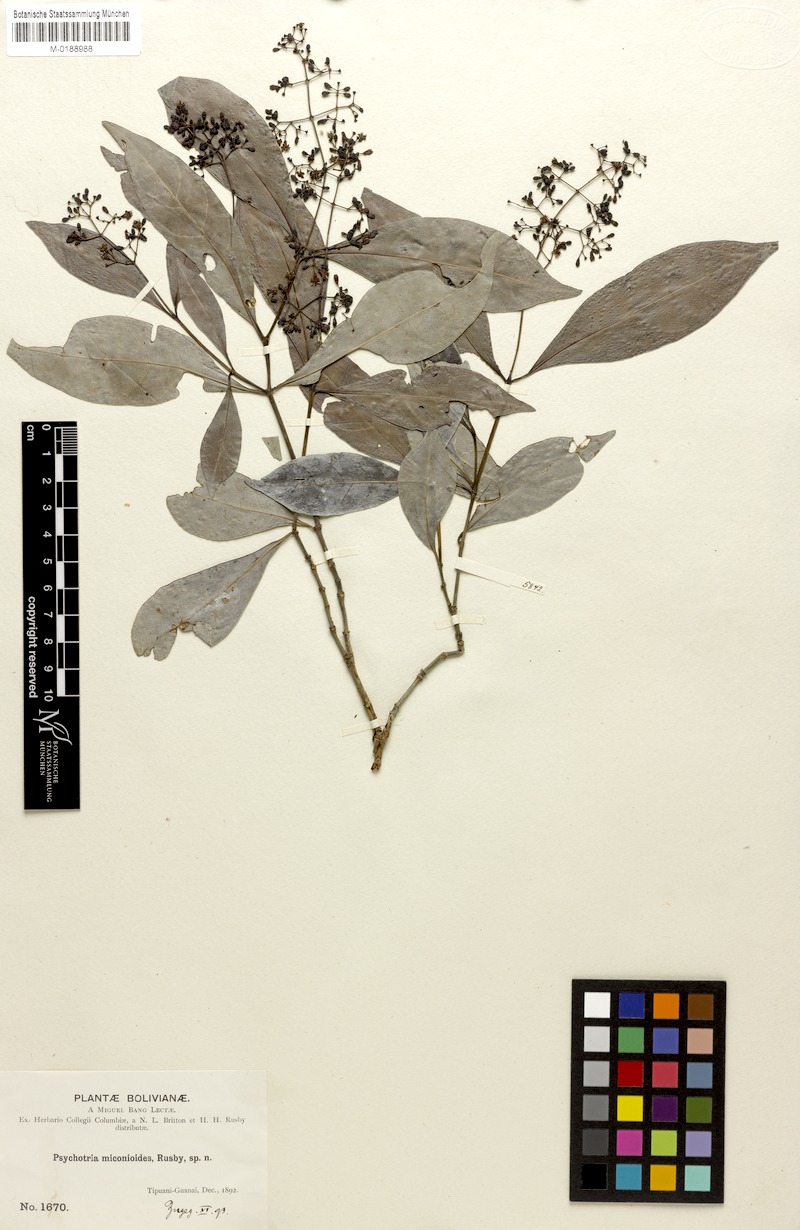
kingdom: Plantae
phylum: Tracheophyta
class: Magnoliopsida
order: Gentianales
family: Rubiaceae
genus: Psychotria
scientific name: Psychotria marginata
